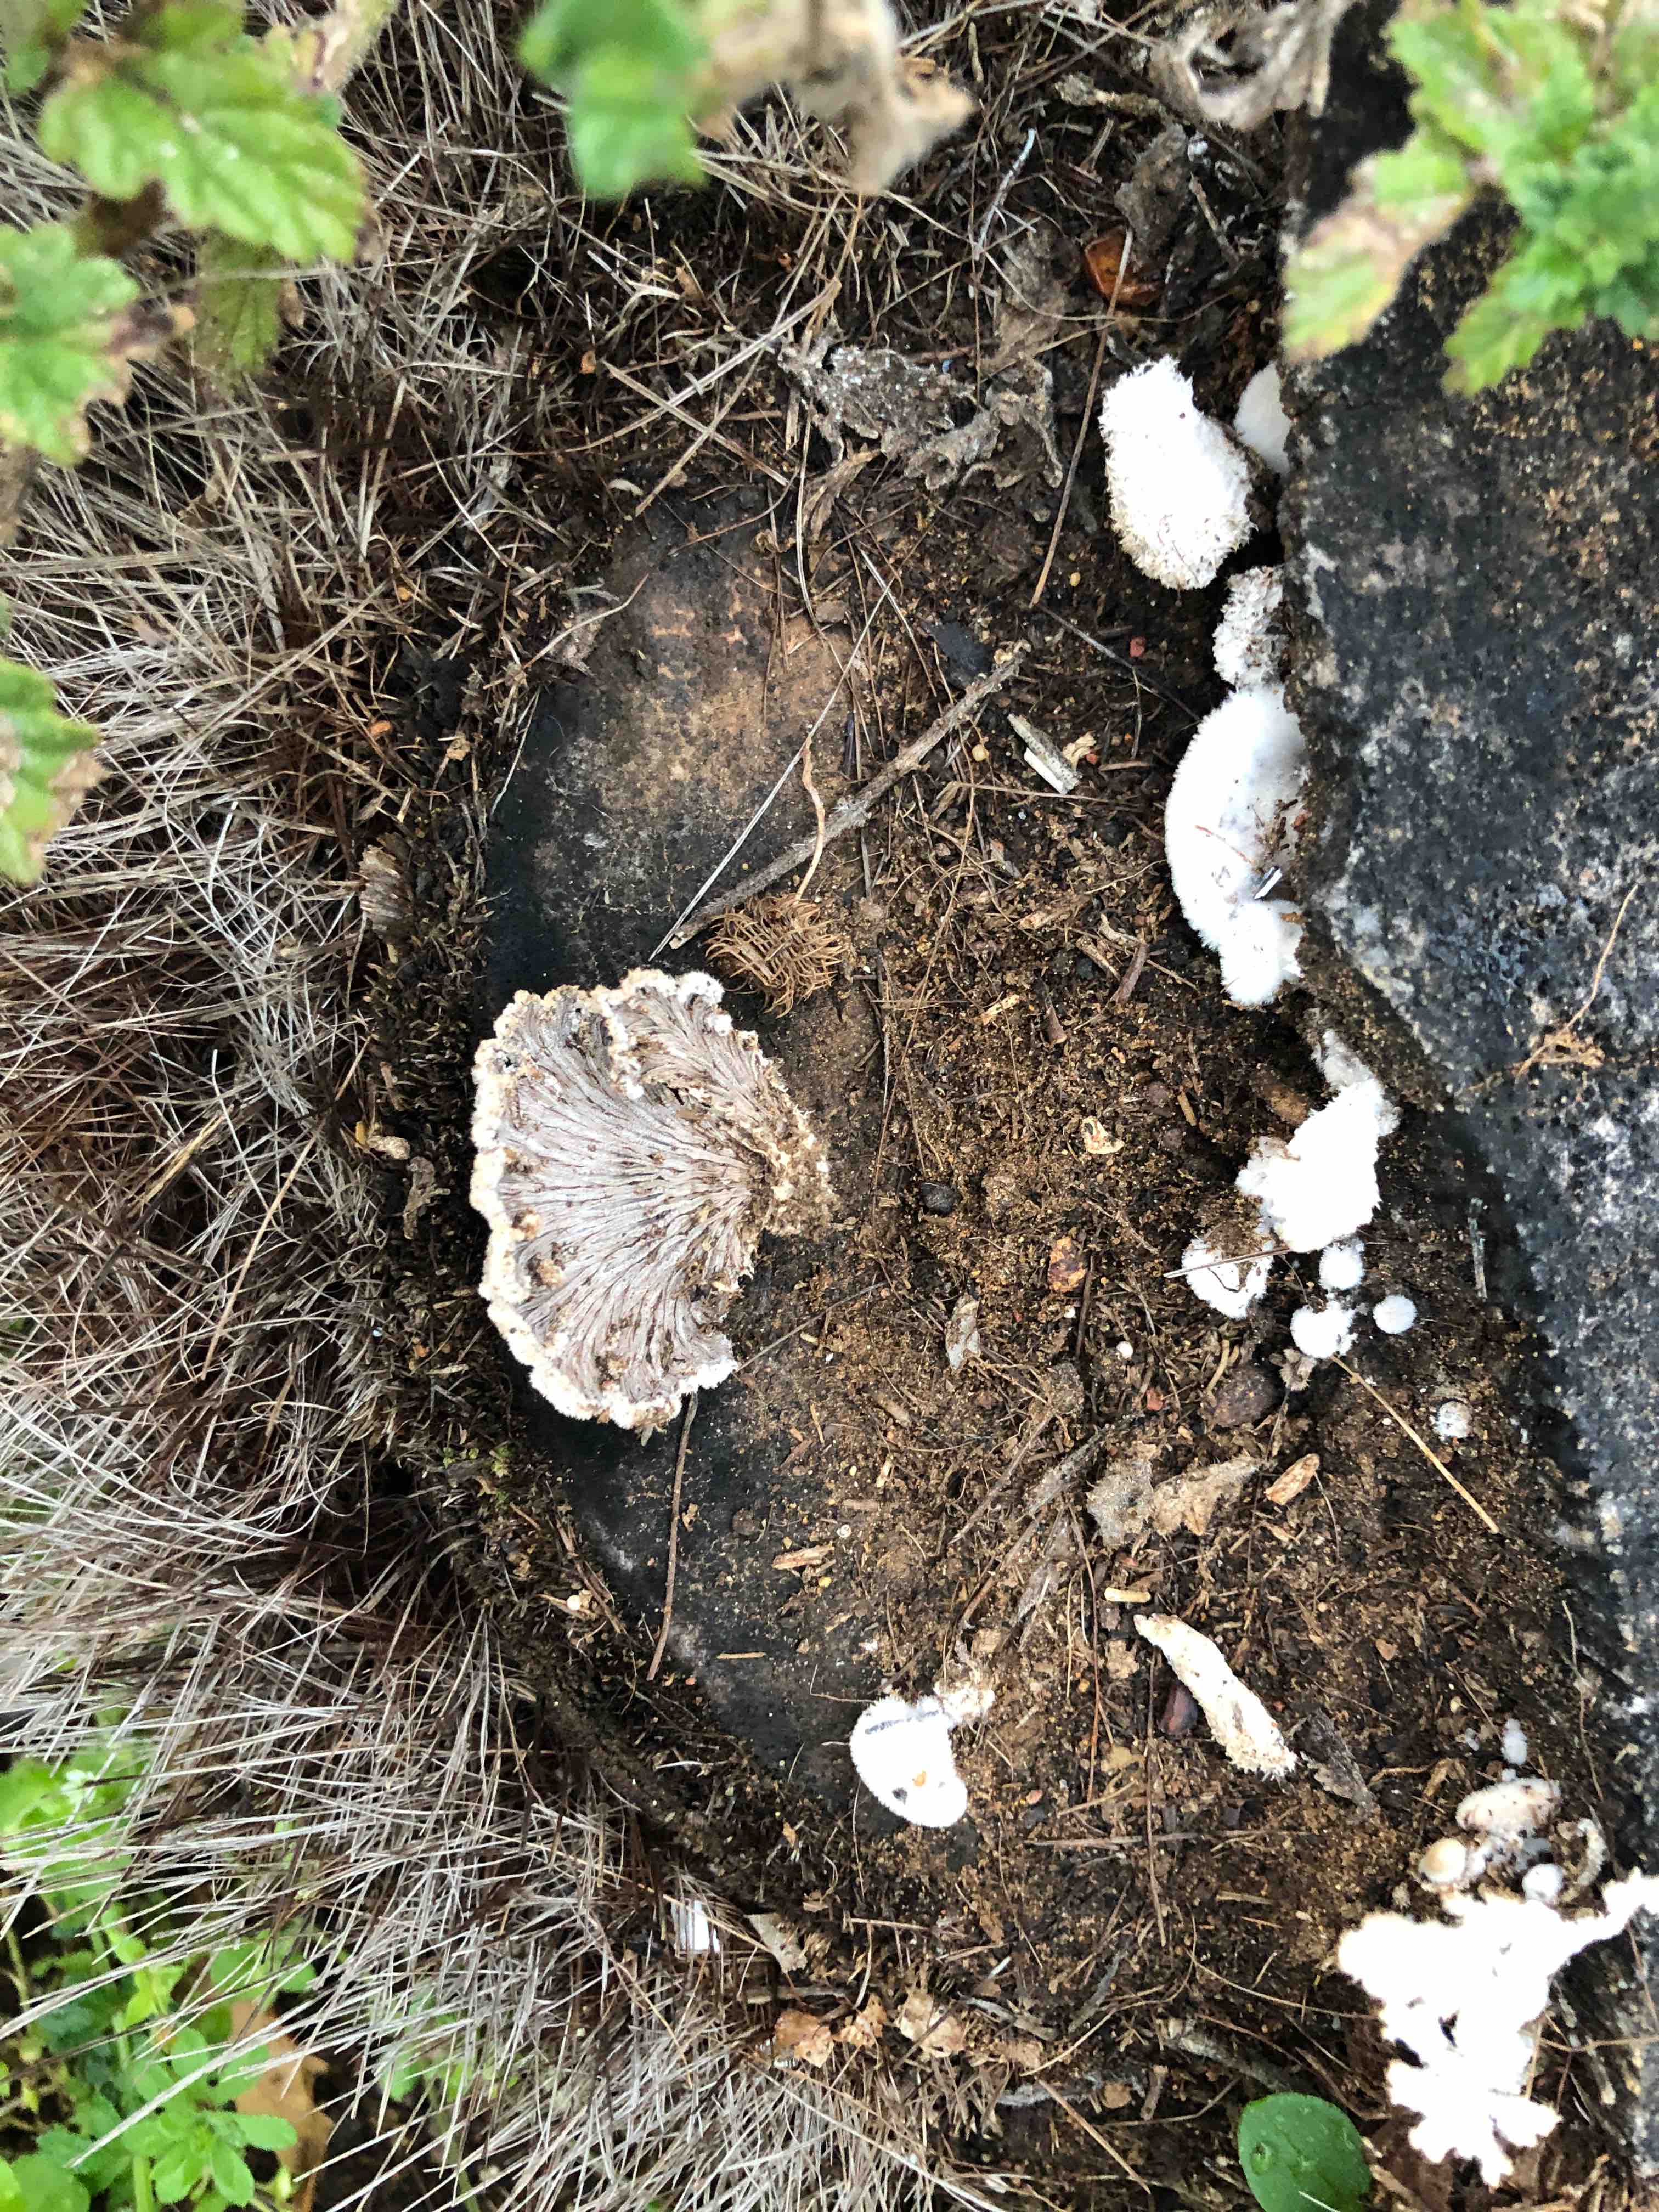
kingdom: Fungi
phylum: Basidiomycota
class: Agaricomycetes
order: Agaricales
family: Schizophyllaceae
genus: Schizophyllum
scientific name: Schizophyllum commune
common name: kløvblad
